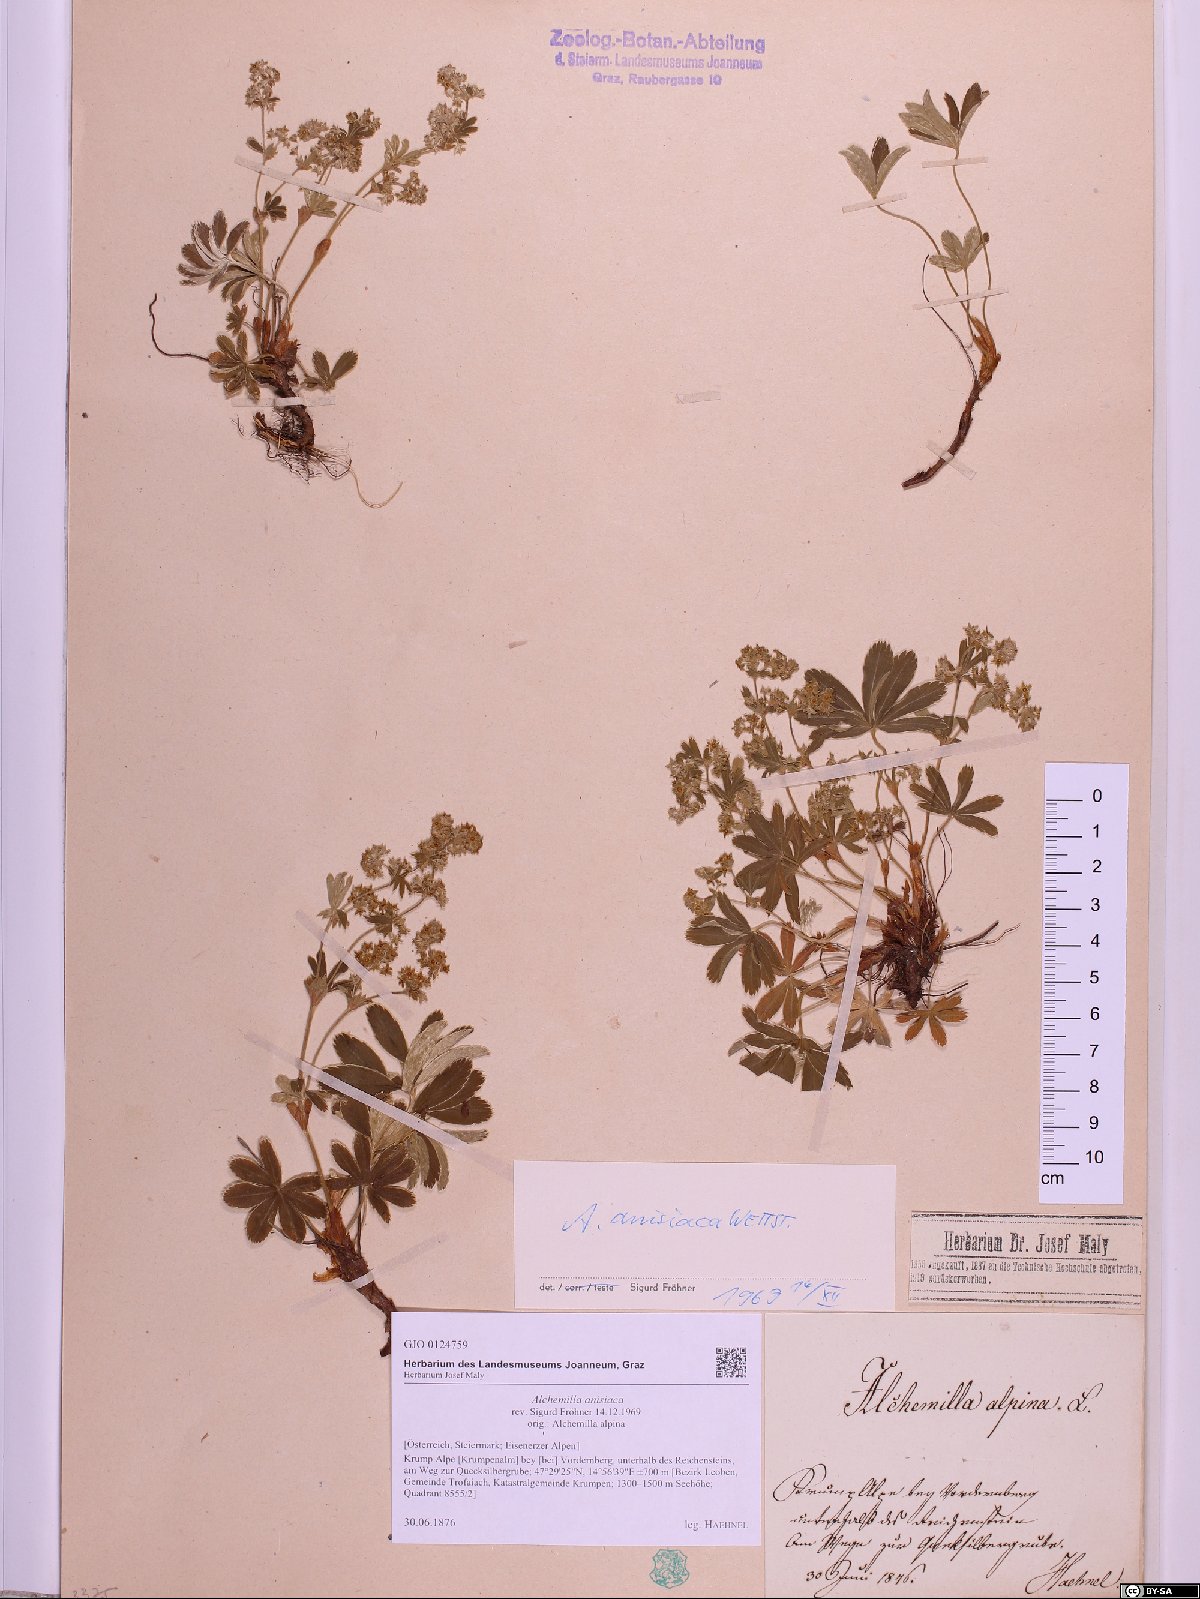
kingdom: Plantae
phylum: Tracheophyta
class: Magnoliopsida
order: Rosales
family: Rosaceae
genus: Alchemilla
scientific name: Alchemilla anisiaca
